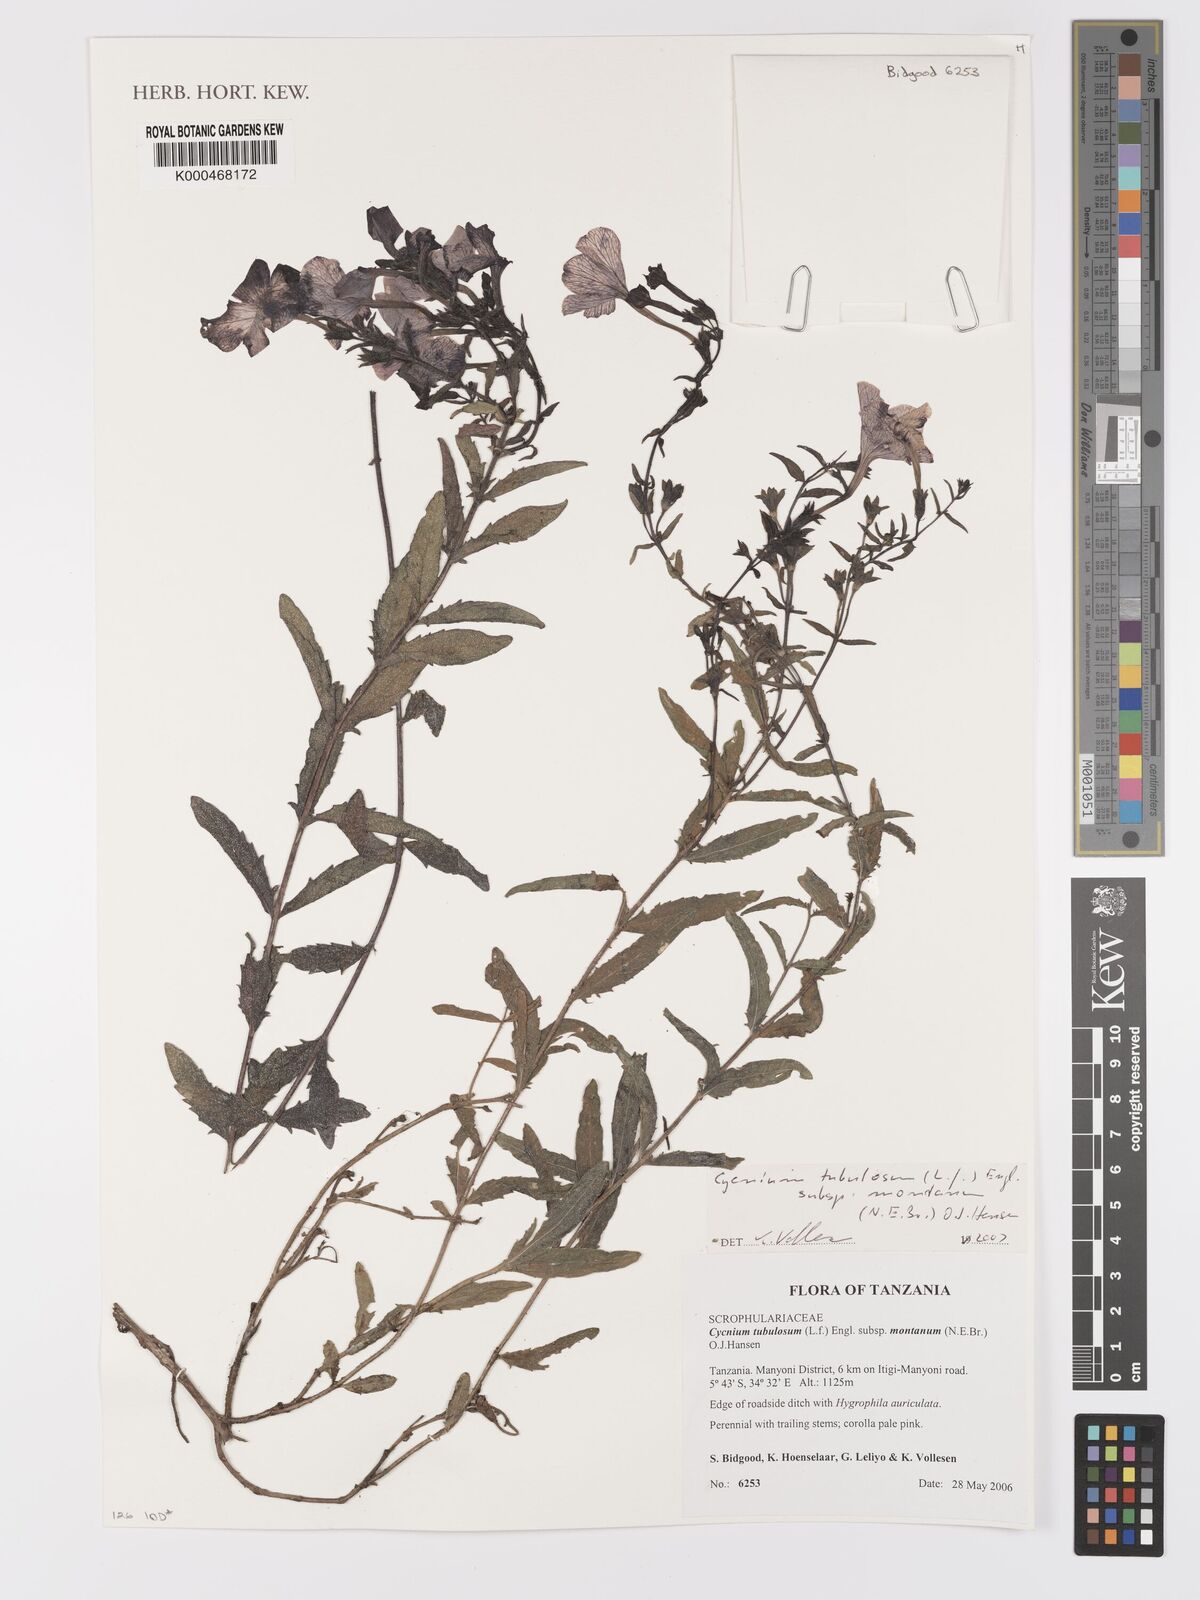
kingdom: Plantae
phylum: Tracheophyta
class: Magnoliopsida
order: Lamiales
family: Orobanchaceae
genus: Cycnium
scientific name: Cycnium tubulosum
